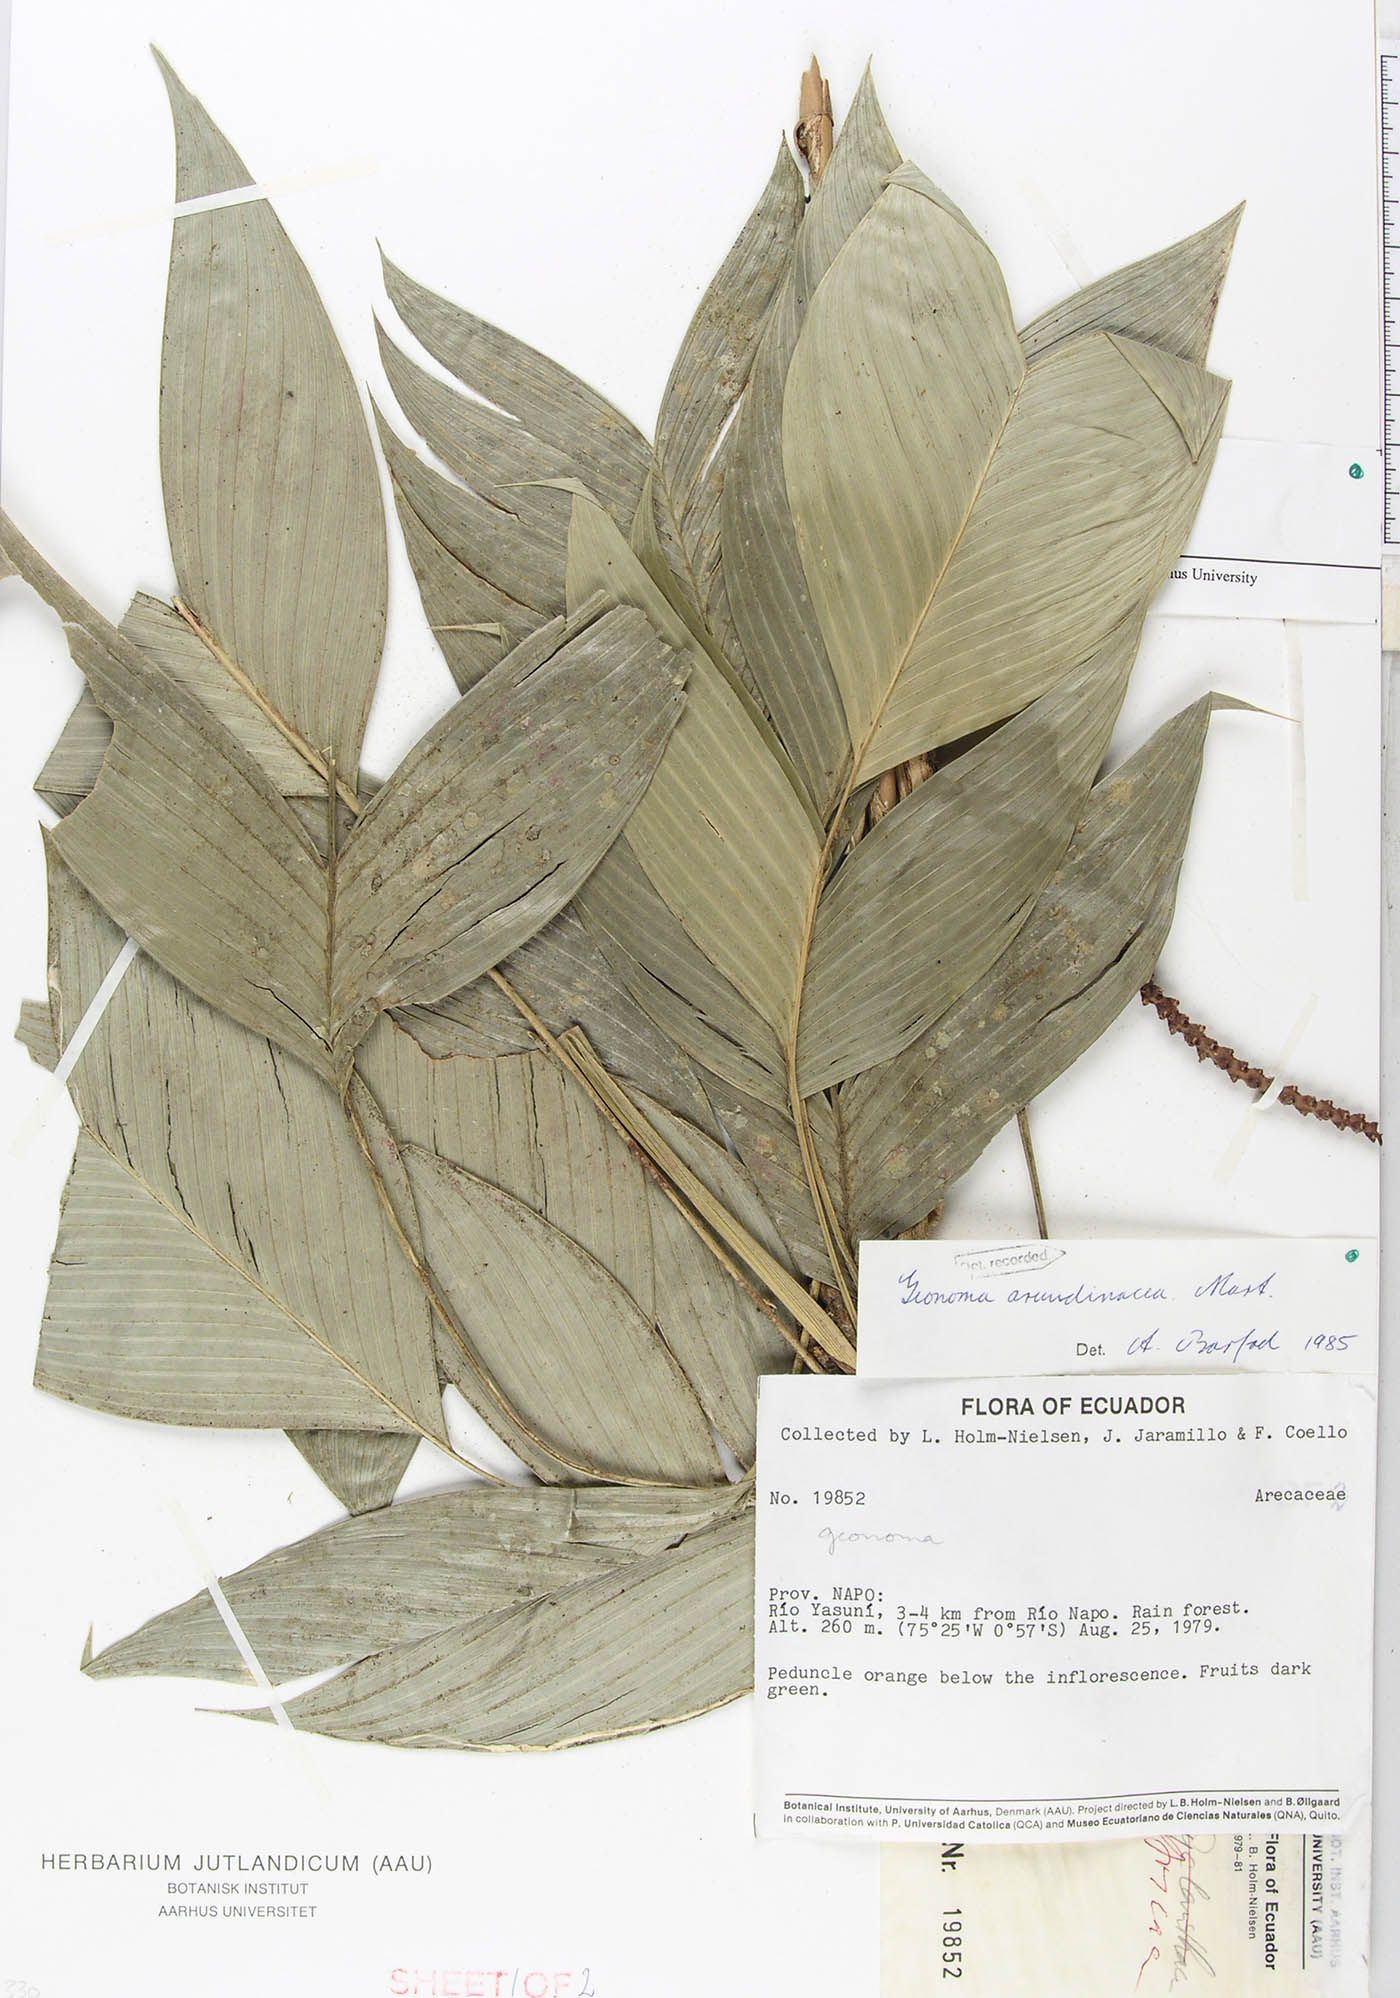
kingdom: Plantae
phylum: Tracheophyta
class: Liliopsida
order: Arecales
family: Arecaceae
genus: Geonoma
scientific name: Geonoma stricta
